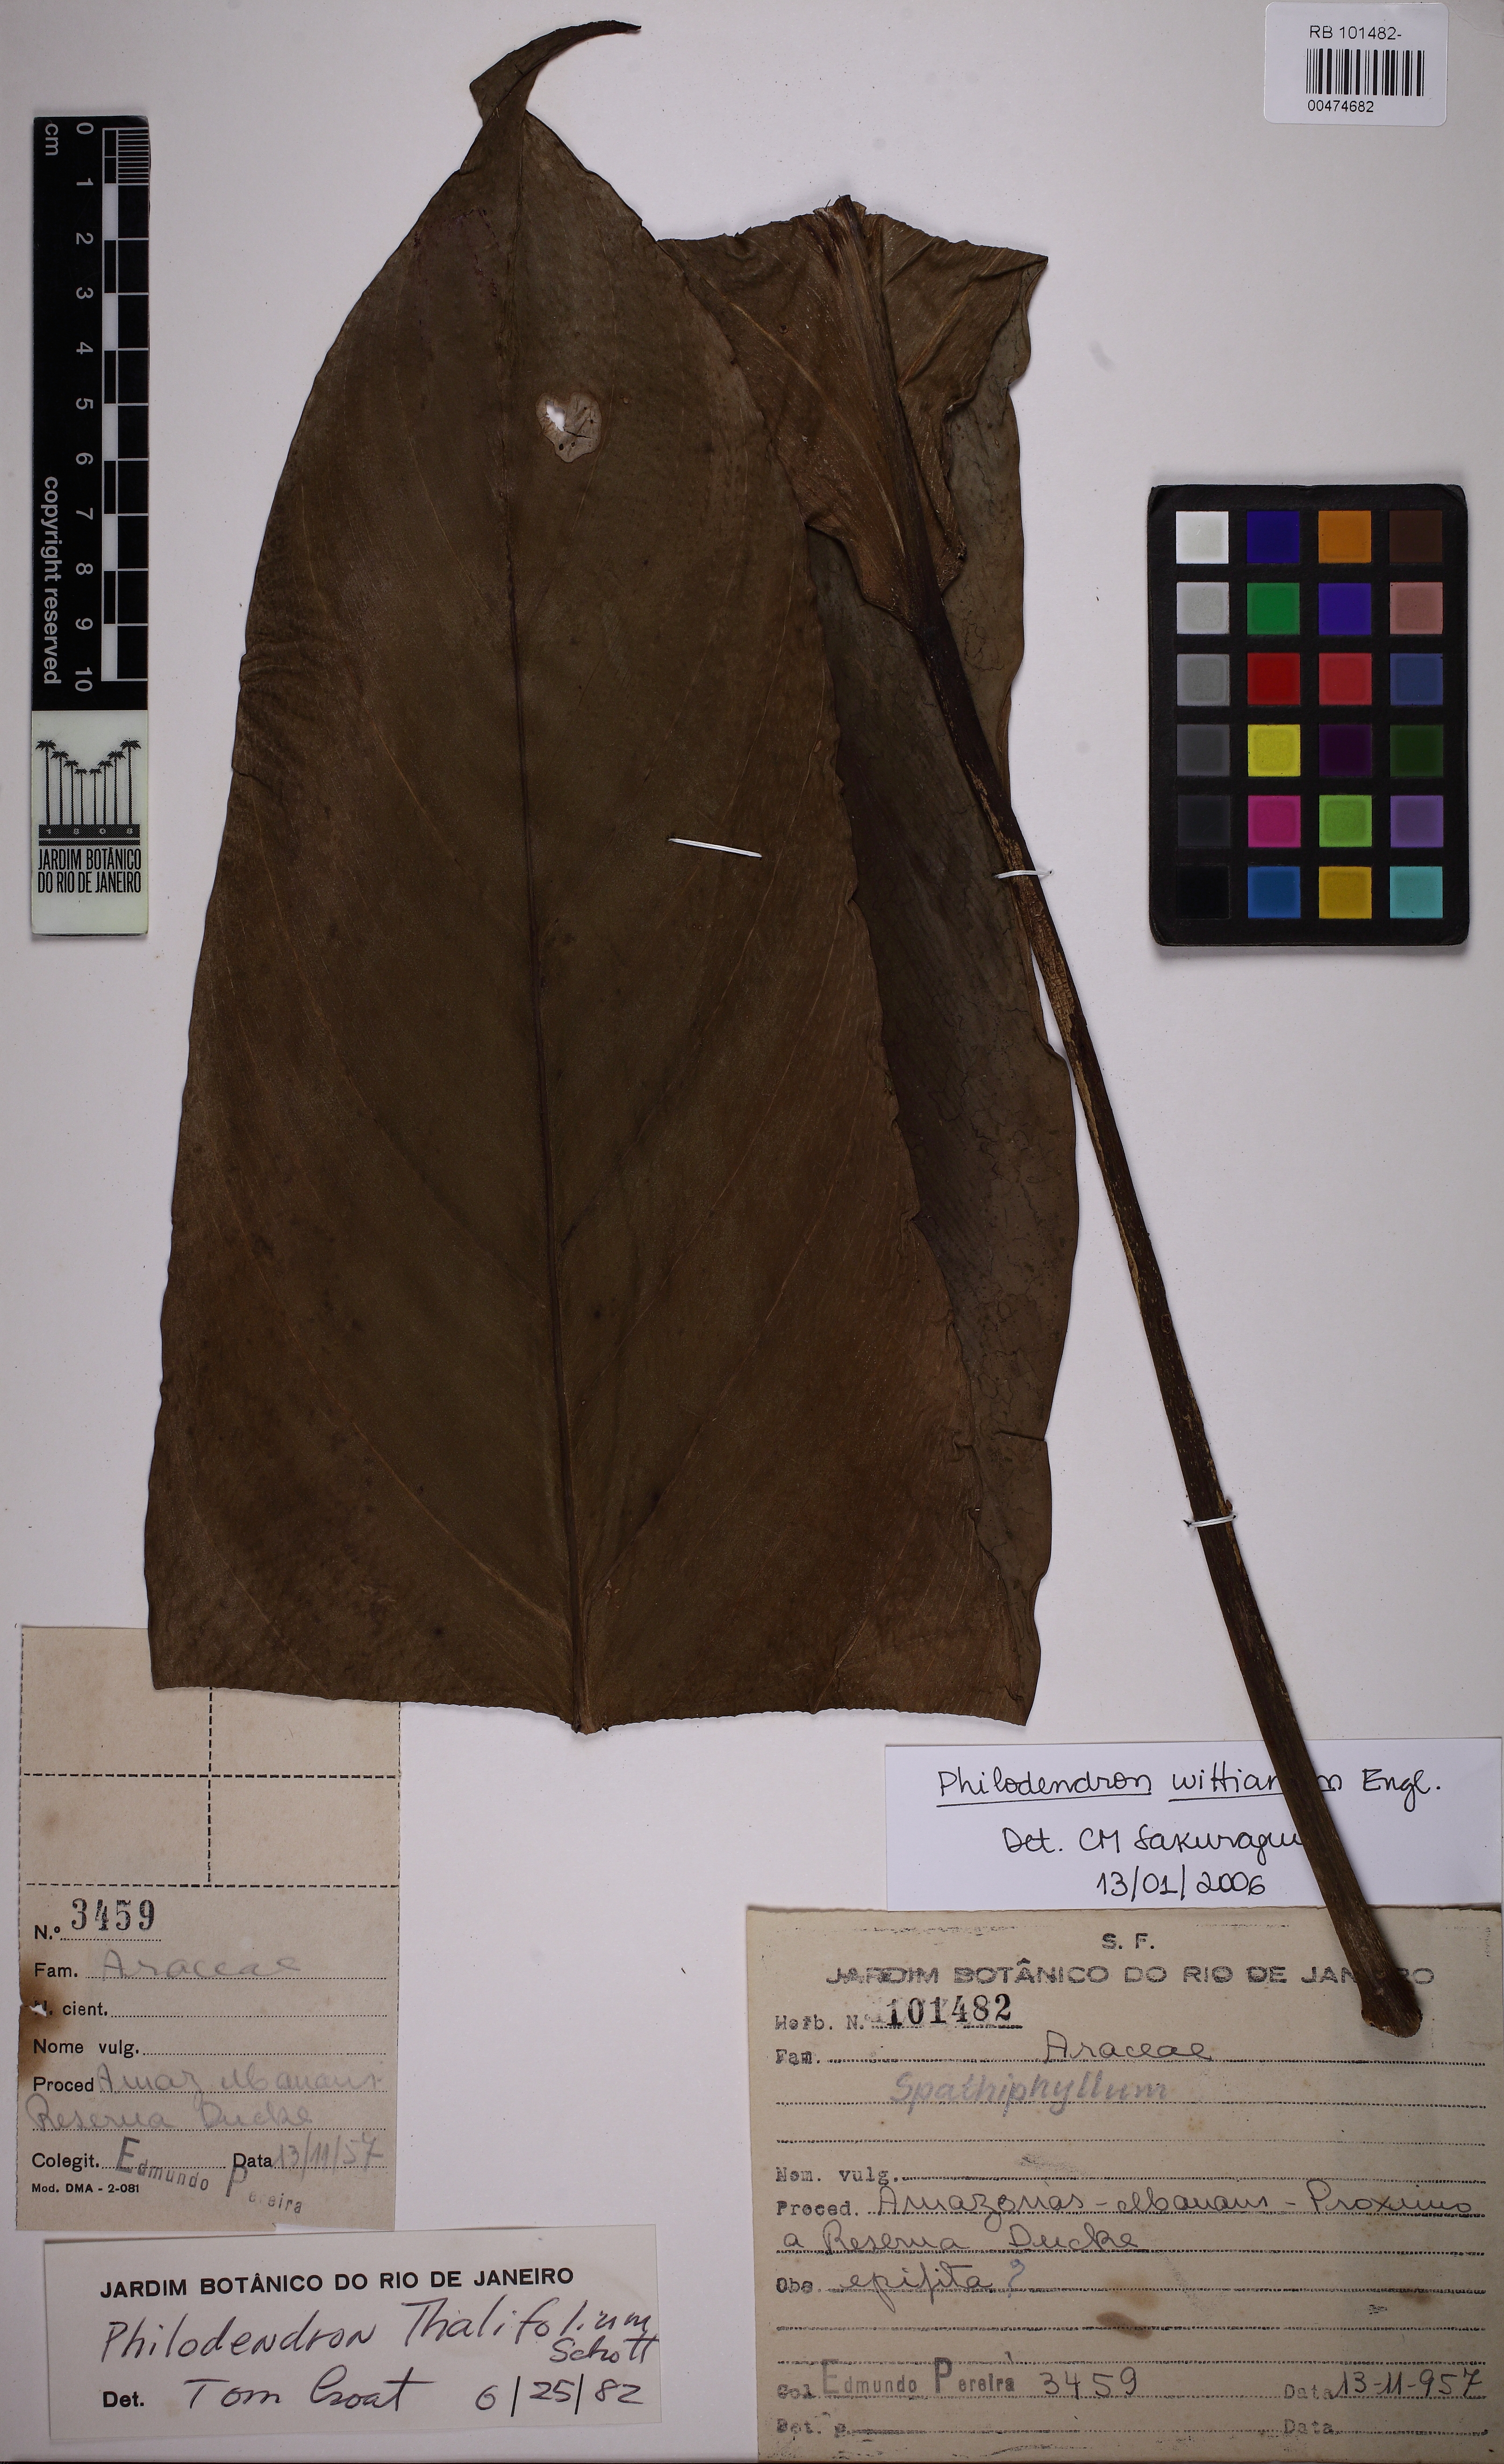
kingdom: Plantae
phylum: Tracheophyta
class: Liliopsida
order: Alismatales
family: Araceae
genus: Philodendron
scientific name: Philodendron wittianum
